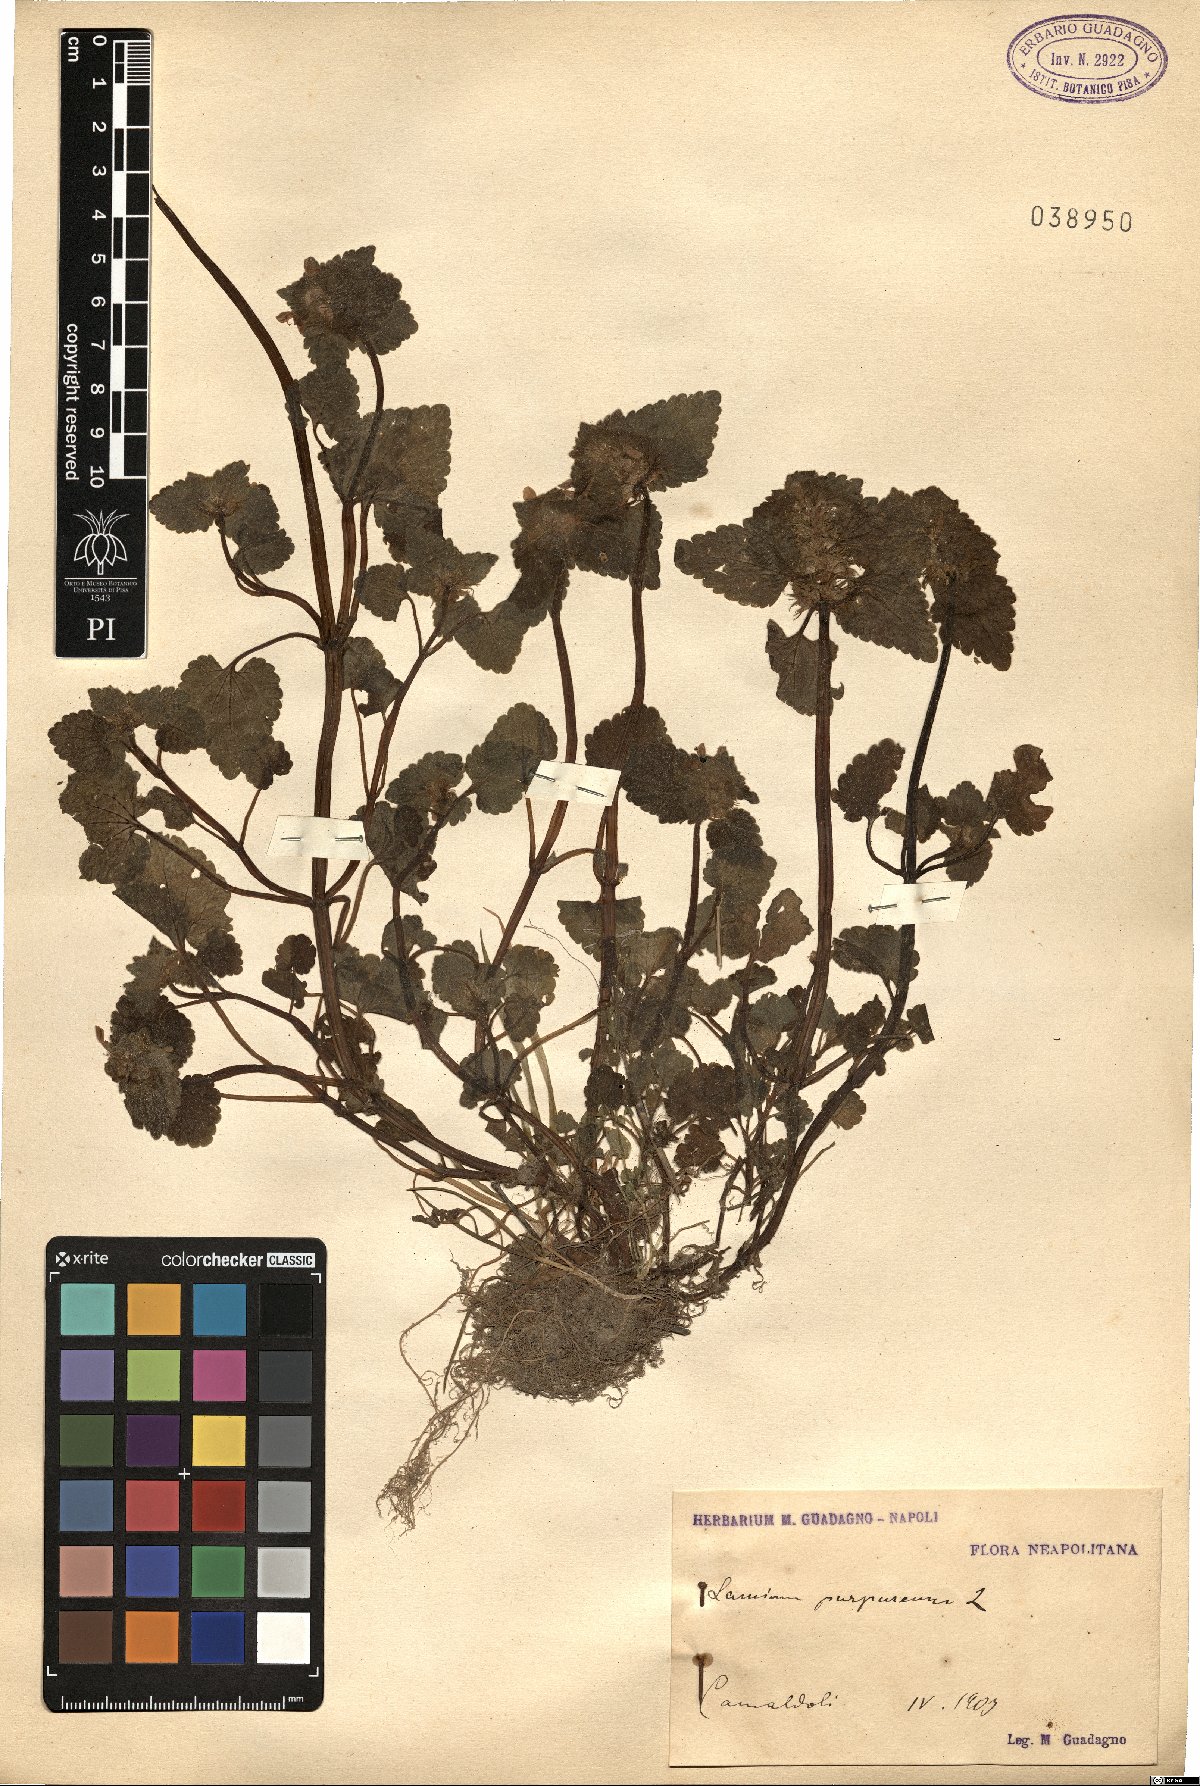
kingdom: Plantae
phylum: Tracheophyta
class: Magnoliopsida
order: Lamiales
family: Lamiaceae
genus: Lamium
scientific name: Lamium purpureum
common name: Red dead-nettle
